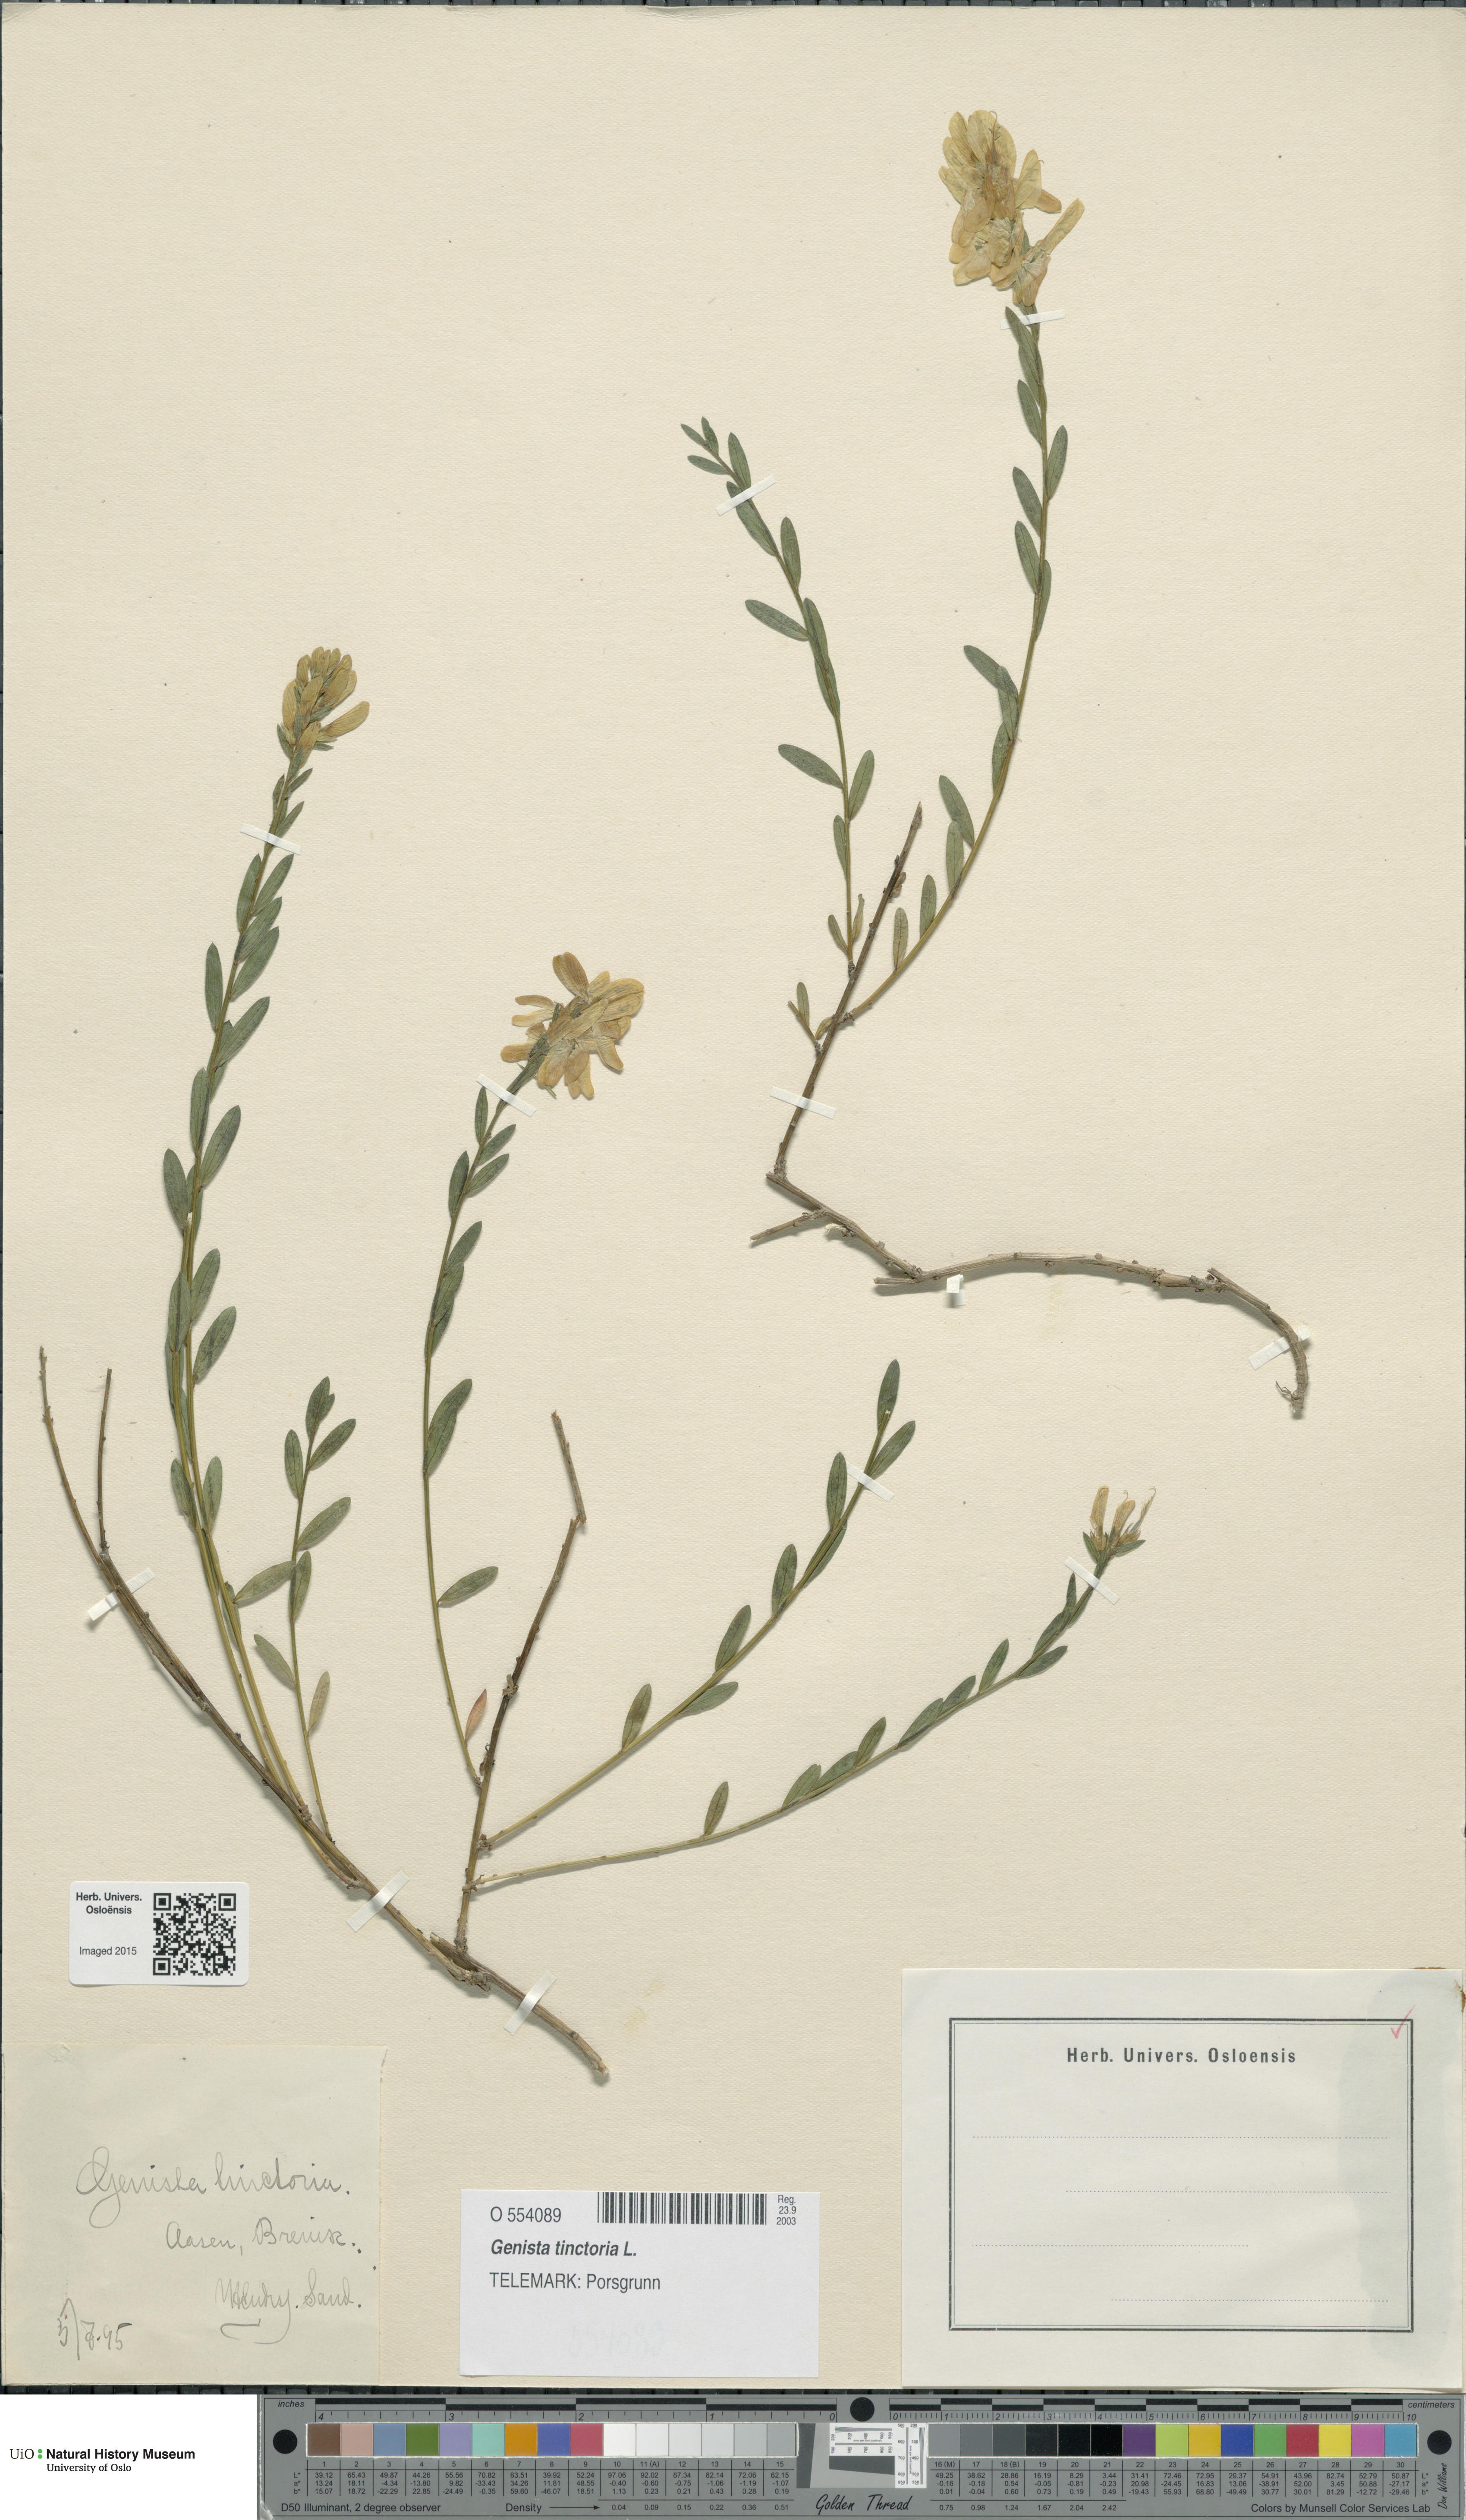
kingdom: Plantae
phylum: Tracheophyta
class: Magnoliopsida
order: Fabales
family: Fabaceae
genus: Genista
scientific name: Genista tinctoria
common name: Dyer's greenweed
